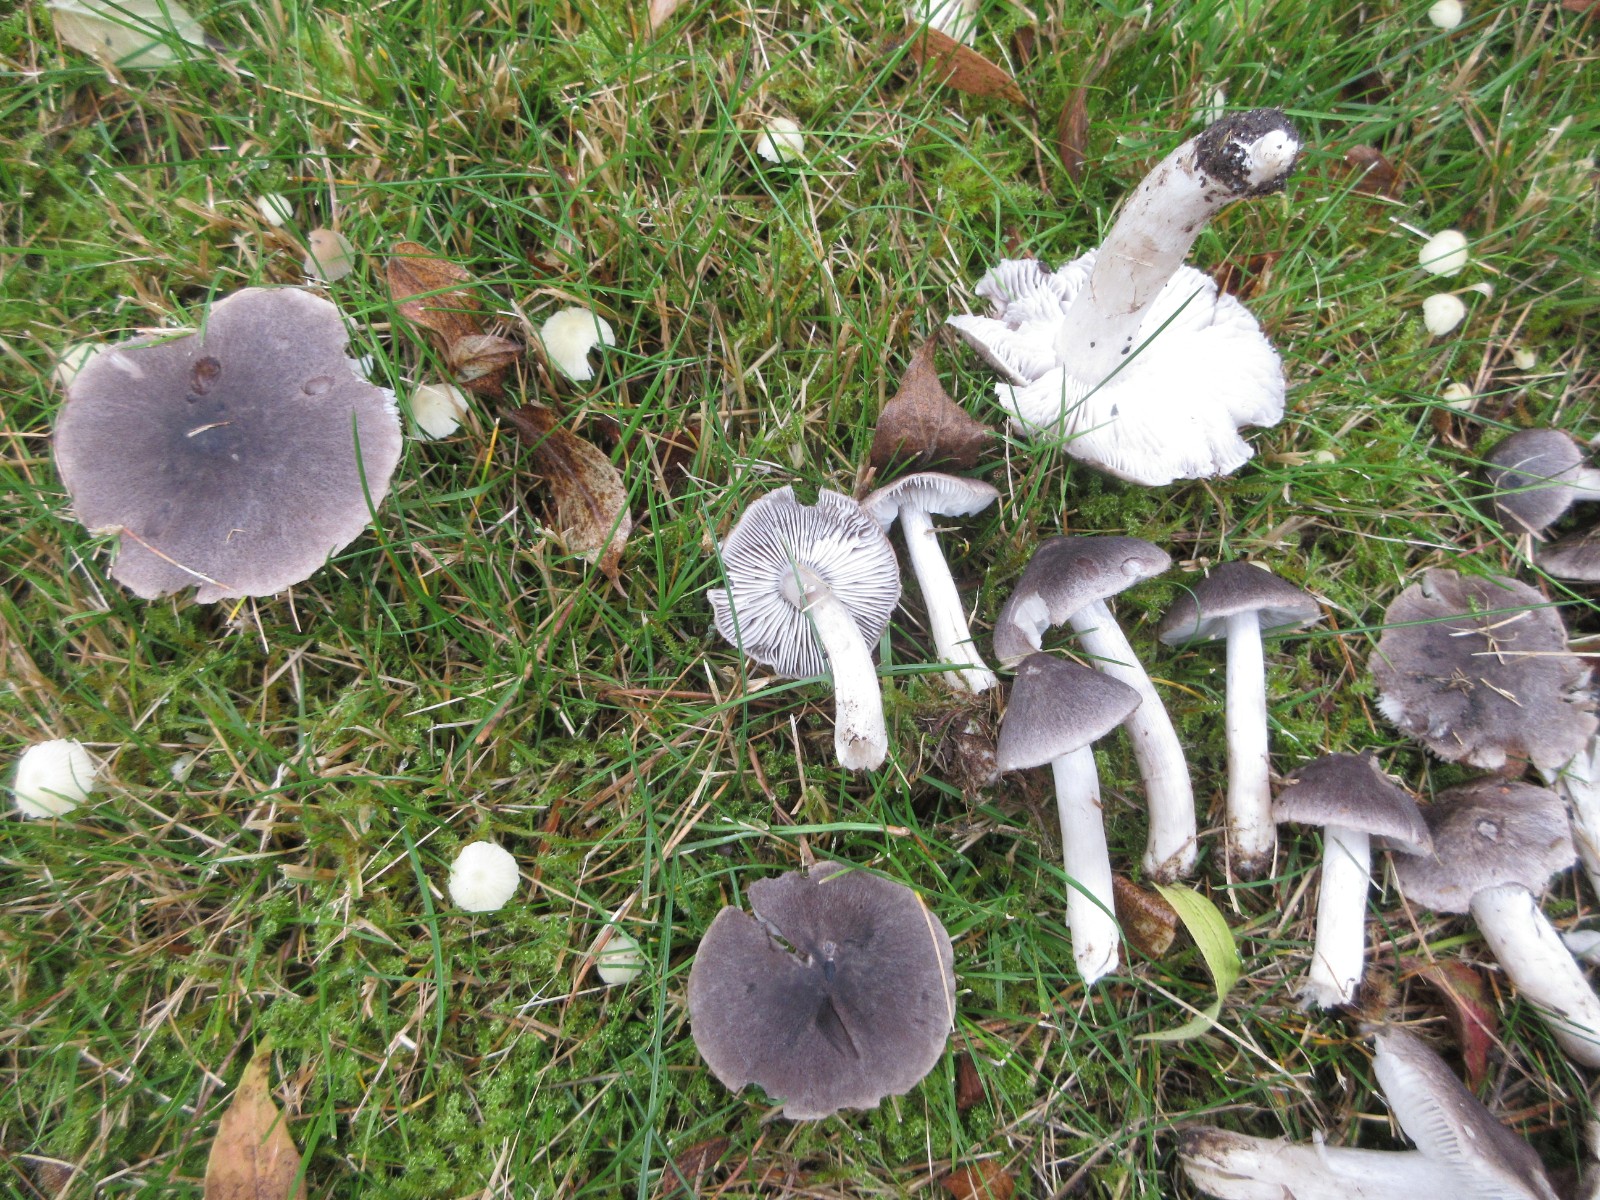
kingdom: Fungi
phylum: Basidiomycota
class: Agaricomycetes
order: Agaricales
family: Tricholomataceae
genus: Tricholoma
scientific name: Tricholoma terreum
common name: jordfarvet ridderhat
